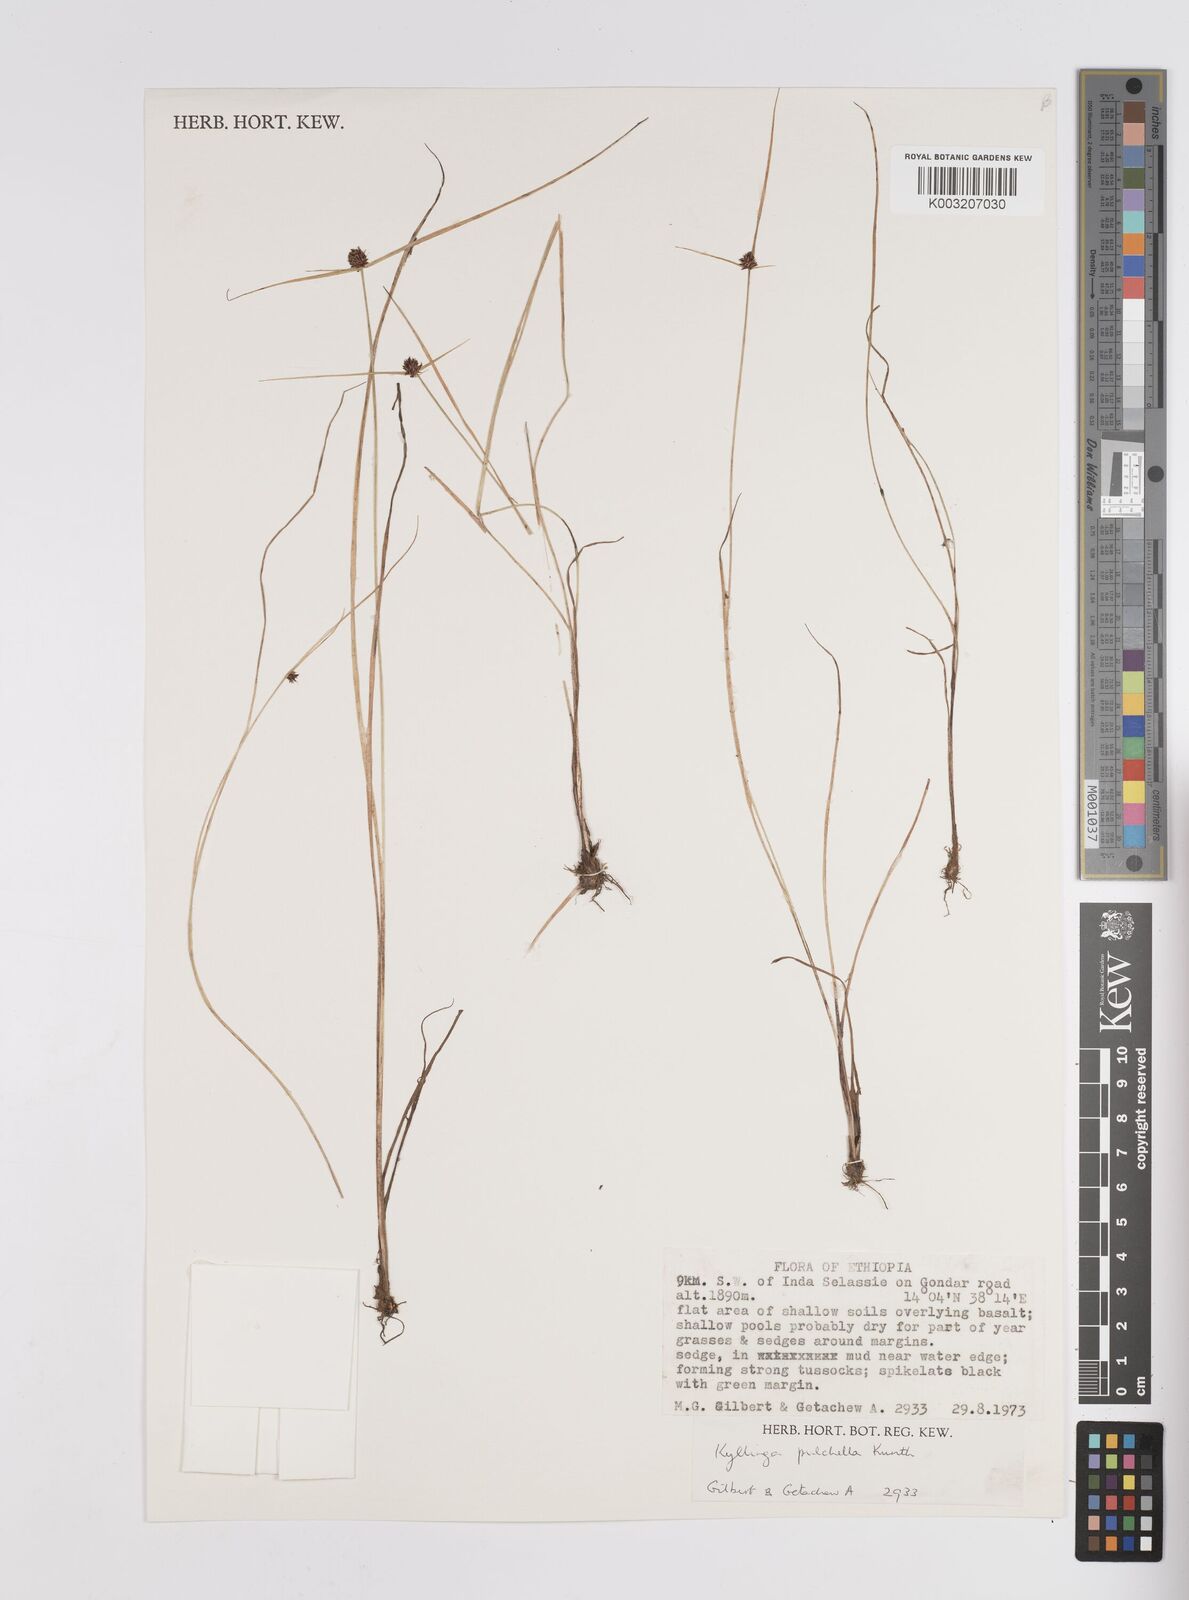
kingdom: Plantae
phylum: Tracheophyta
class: Liliopsida
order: Poales
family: Cyperaceae
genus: Cyperus
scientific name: Cyperus
